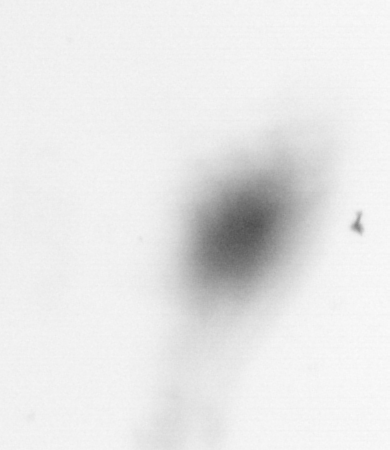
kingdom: Animalia
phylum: Arthropoda
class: Copepoda
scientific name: Copepoda
